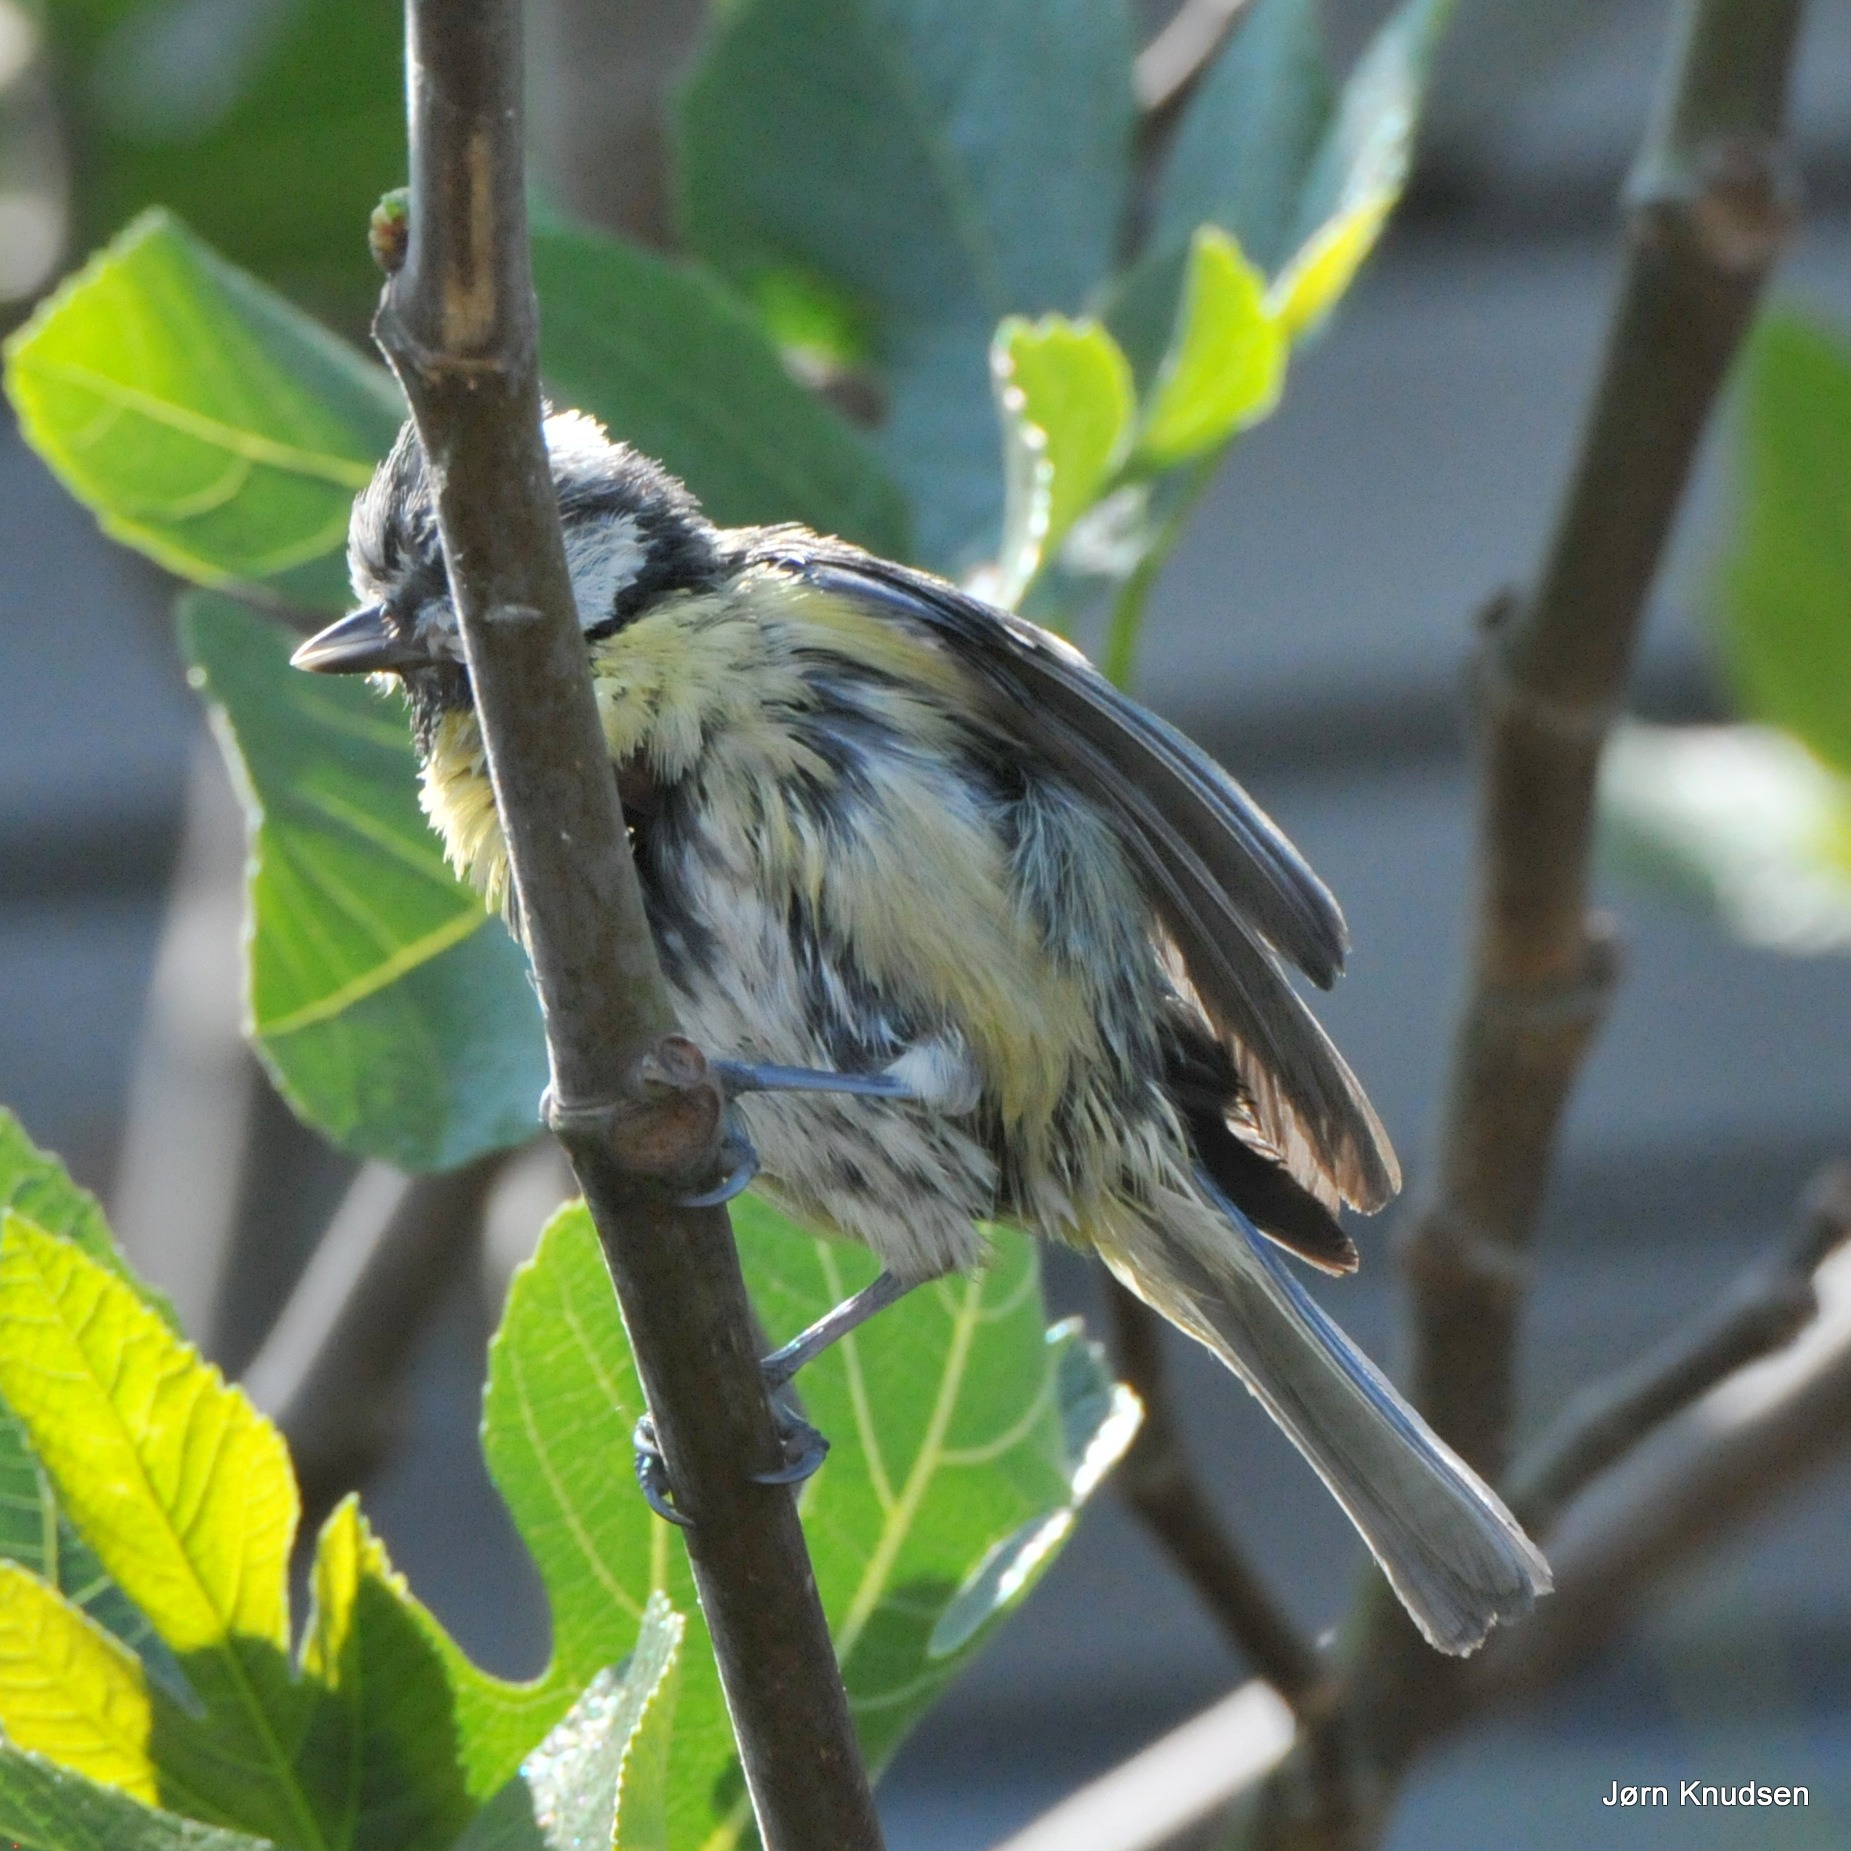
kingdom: Animalia
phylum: Chordata
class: Aves
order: Passeriformes
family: Paridae
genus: Cyanistes
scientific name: Cyanistes caeruleus
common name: Blåmejse
